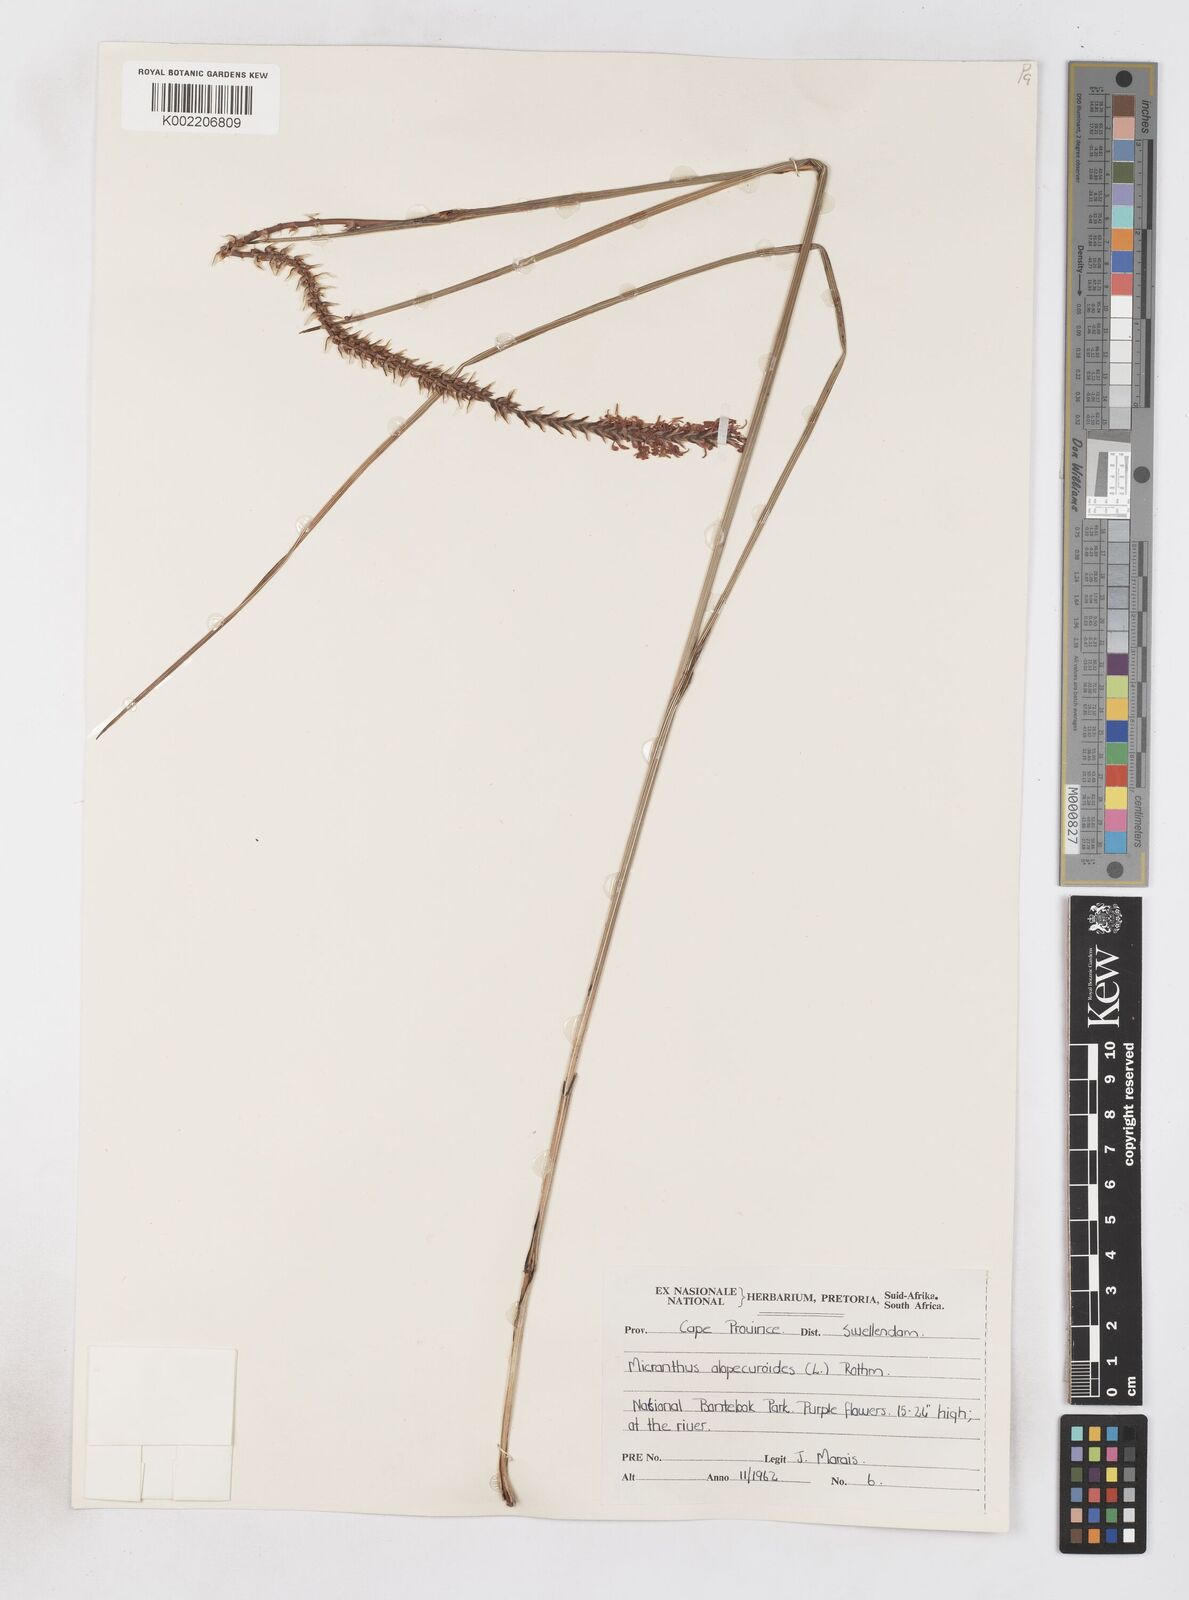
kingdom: Plantae
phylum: Tracheophyta
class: Liliopsida
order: Asparagales
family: Iridaceae
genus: Micranthus
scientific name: Micranthus alopecuroides
